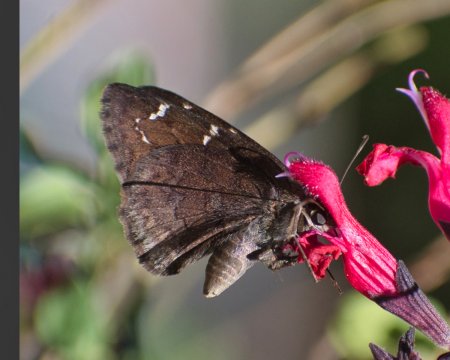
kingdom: Animalia
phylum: Arthropoda
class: Insecta
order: Lepidoptera
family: Hesperiidae
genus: Autochton
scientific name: Autochton
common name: Northern Cloudywing
